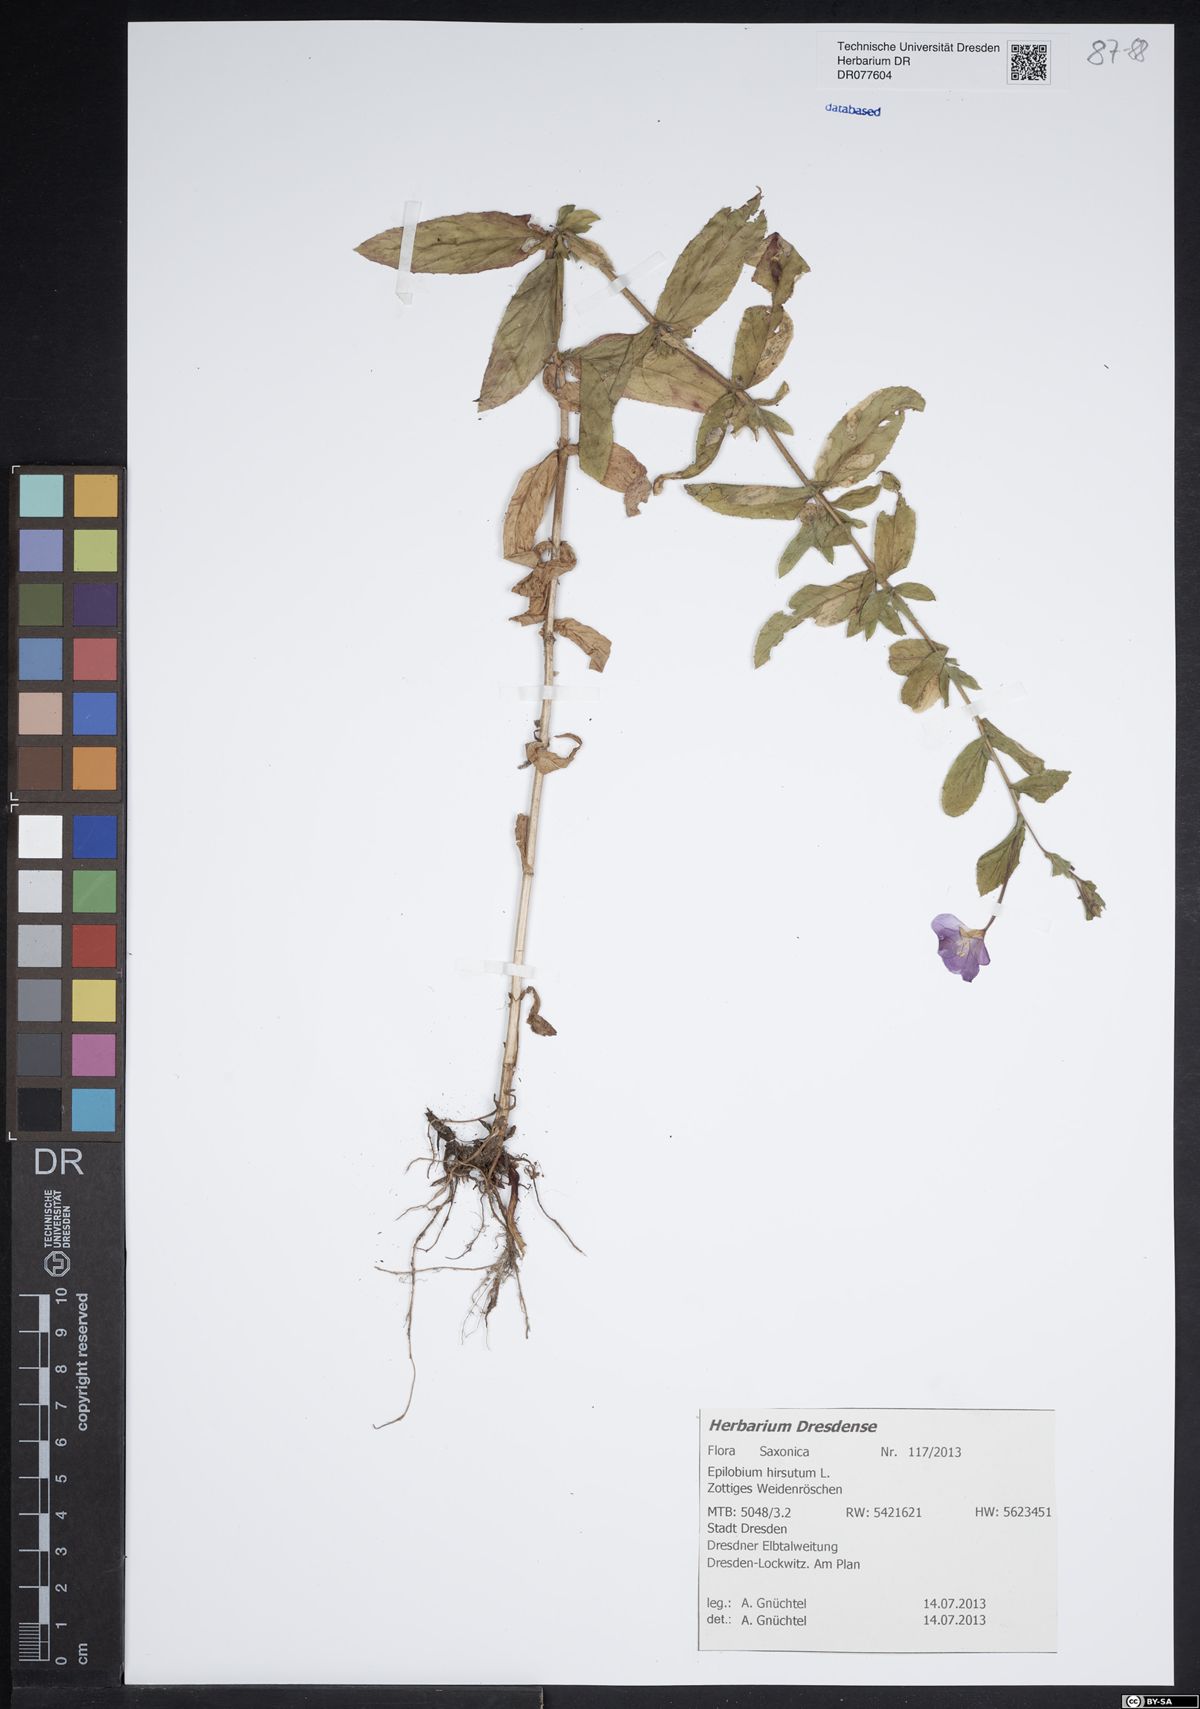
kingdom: Plantae
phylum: Tracheophyta
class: Magnoliopsida
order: Myrtales
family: Onagraceae
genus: Epilobium
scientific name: Epilobium hirsutum
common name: Great willowherb
